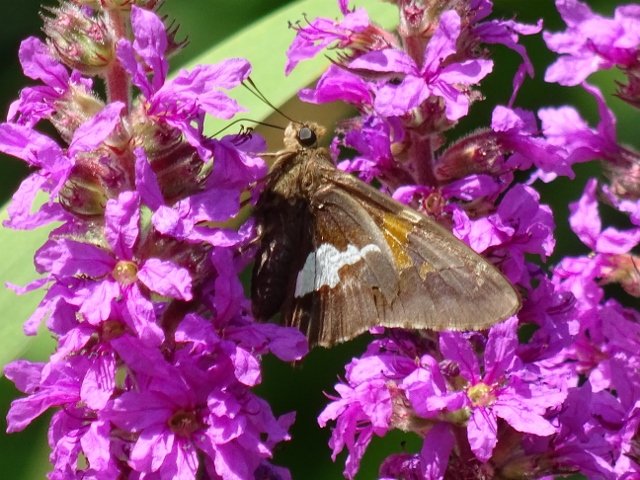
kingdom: Animalia
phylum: Arthropoda
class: Insecta
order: Lepidoptera
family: Hesperiidae
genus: Epargyreus
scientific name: Epargyreus clarus
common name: Silver-spotted Skipper
